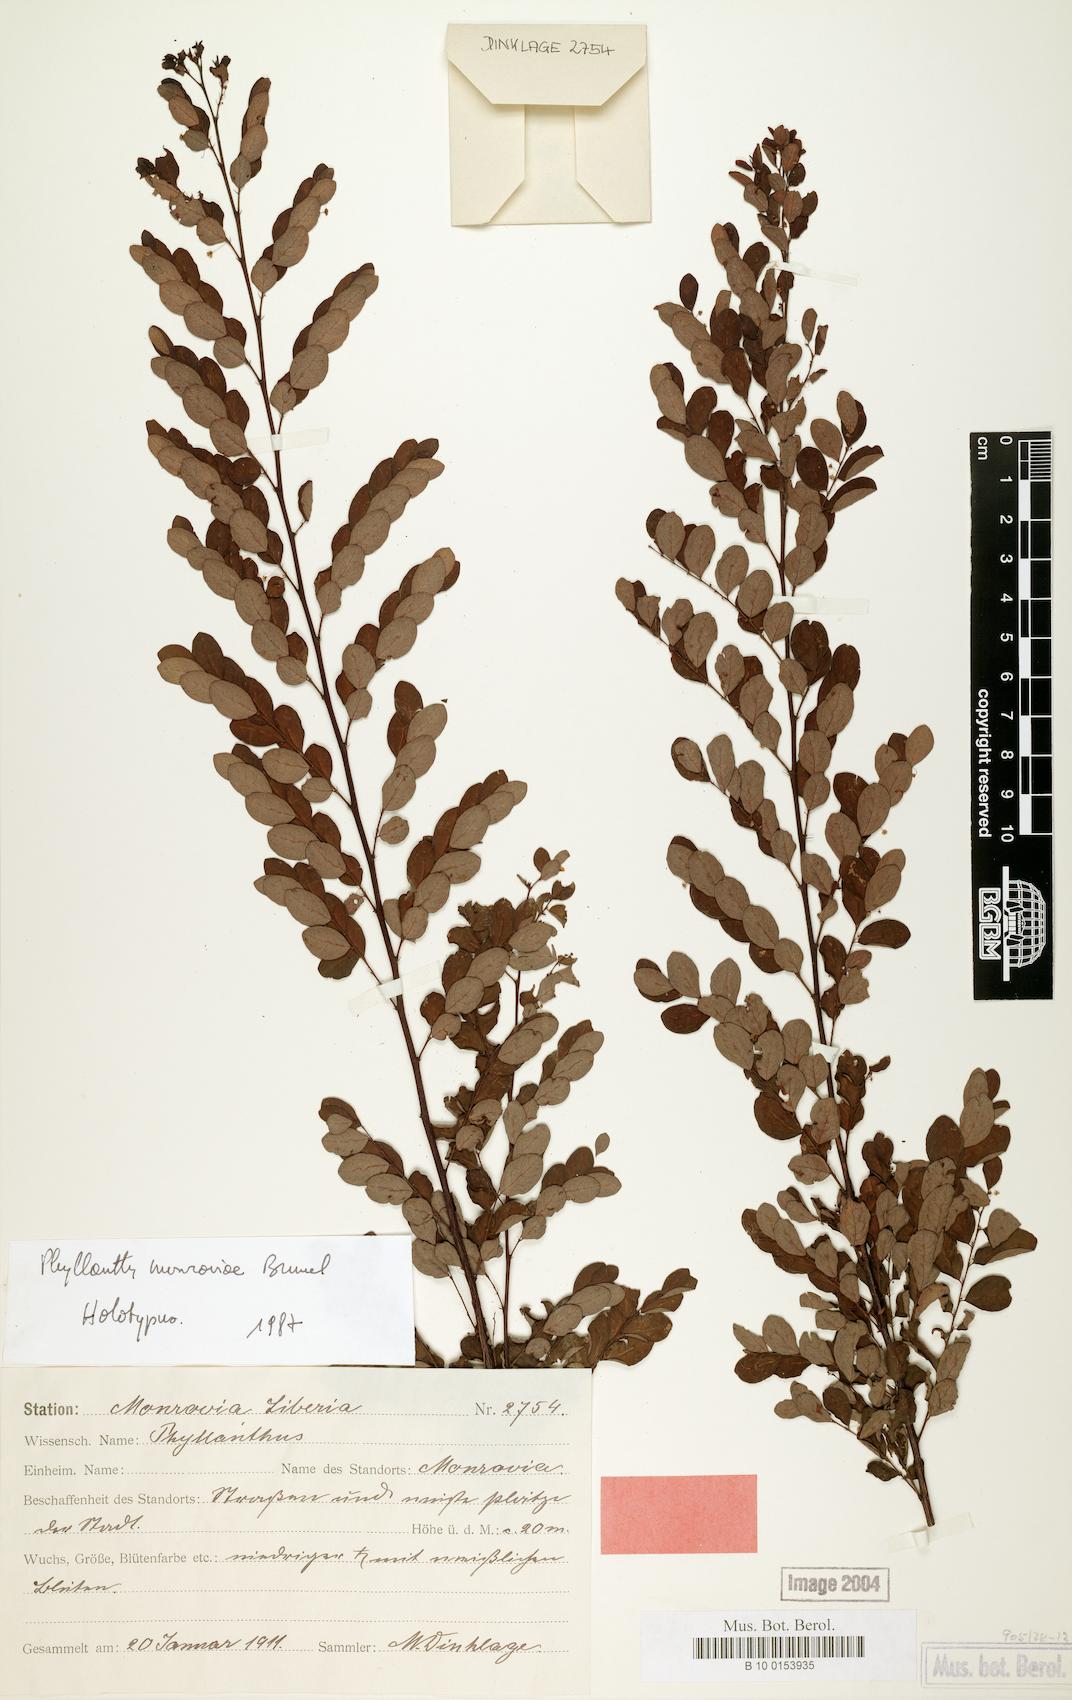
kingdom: Plantae
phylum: Tracheophyta
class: Magnoliopsida
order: Malpighiales
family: Phyllanthaceae
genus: Phyllanthus
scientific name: Phyllanthus monroviae
